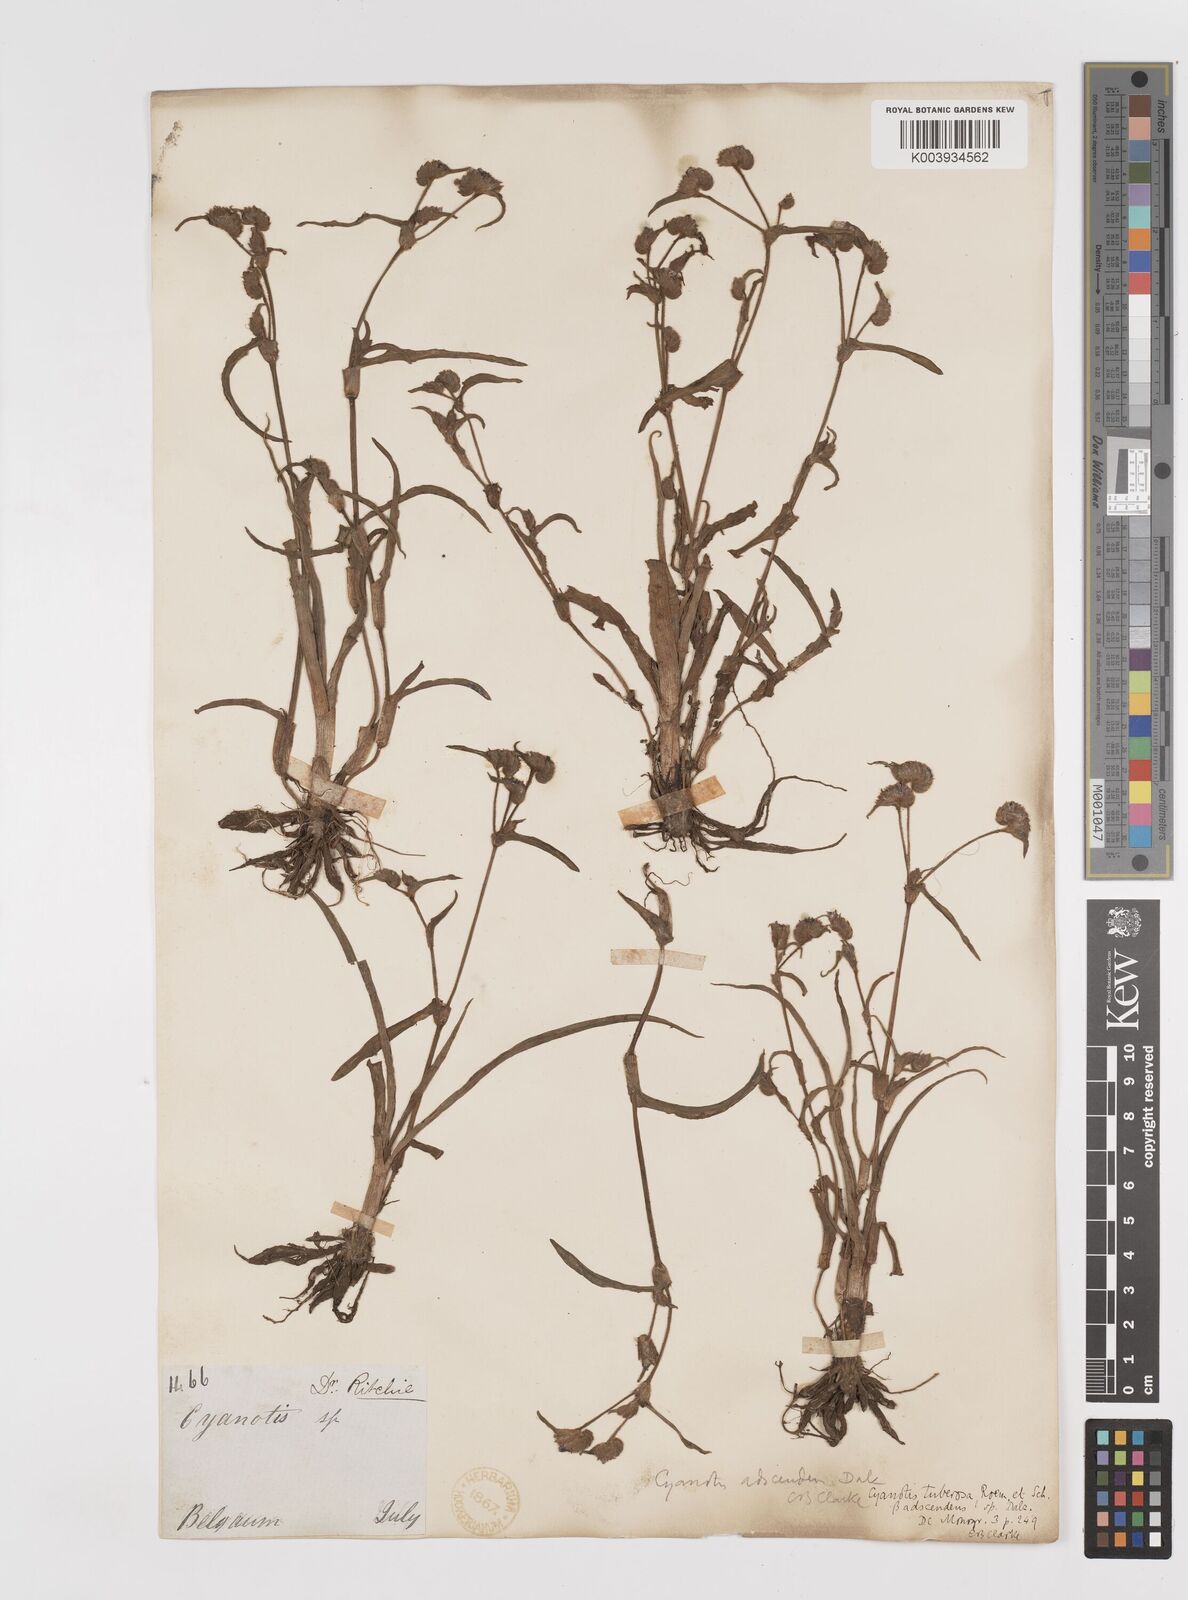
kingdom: Plantae
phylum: Tracheophyta
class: Liliopsida
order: Commelinales
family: Commelinaceae
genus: Cyanotis
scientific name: Cyanotis tuberosa
